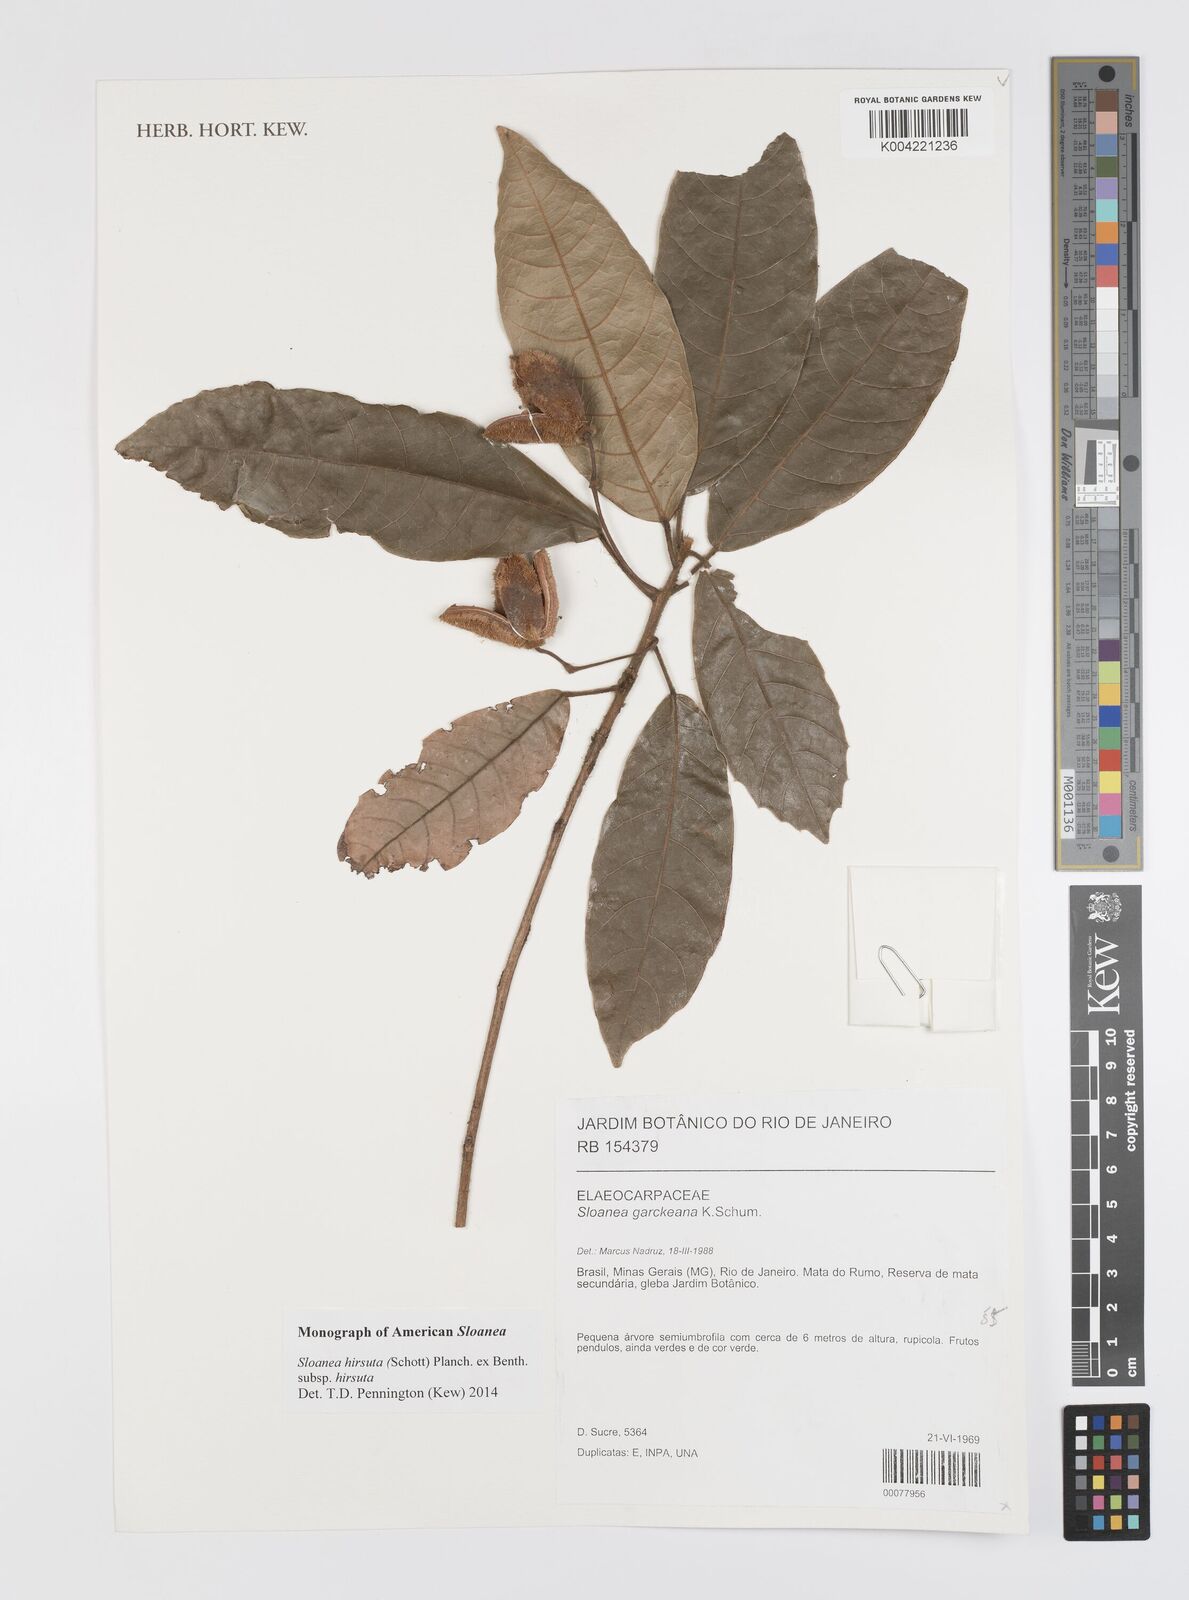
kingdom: Plantae
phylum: Tracheophyta
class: Magnoliopsida
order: Oxalidales
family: Elaeocarpaceae
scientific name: Elaeocarpaceae
